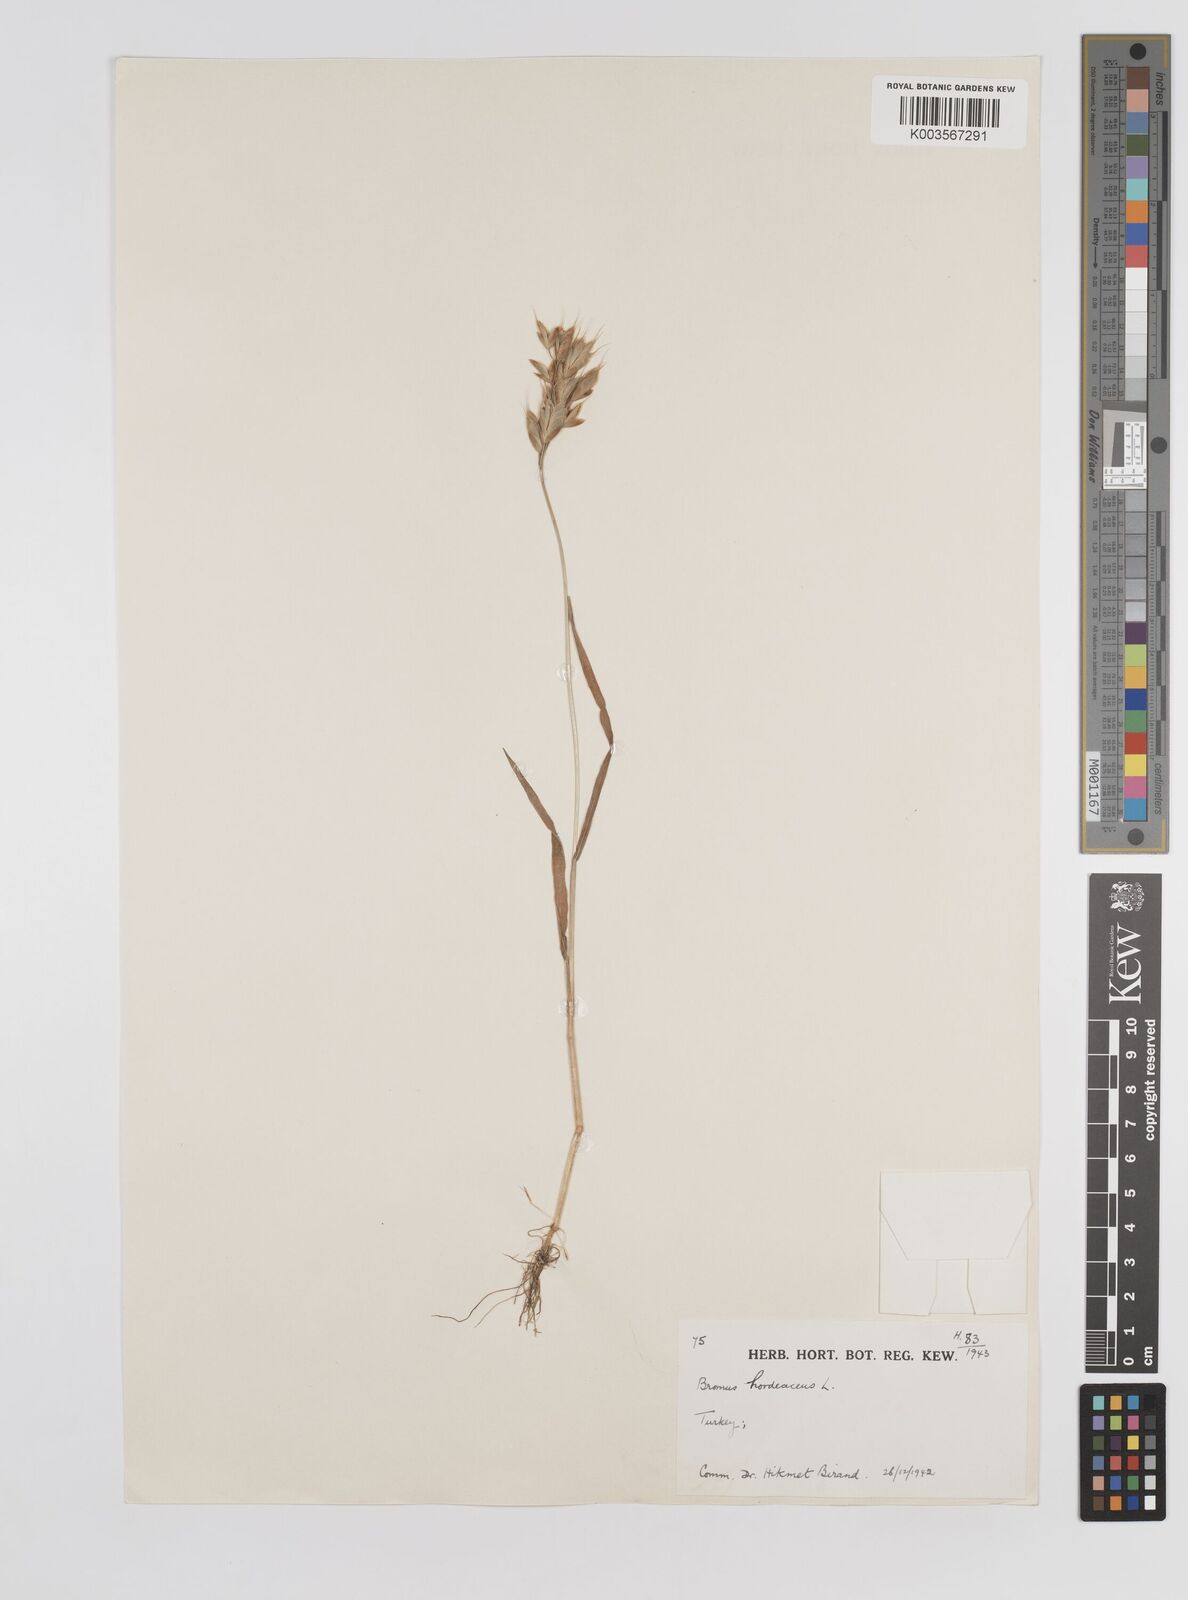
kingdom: Plantae
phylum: Tracheophyta
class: Liliopsida
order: Poales
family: Poaceae
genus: Bromus
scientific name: Bromus hordeaceus
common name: Soft brome
